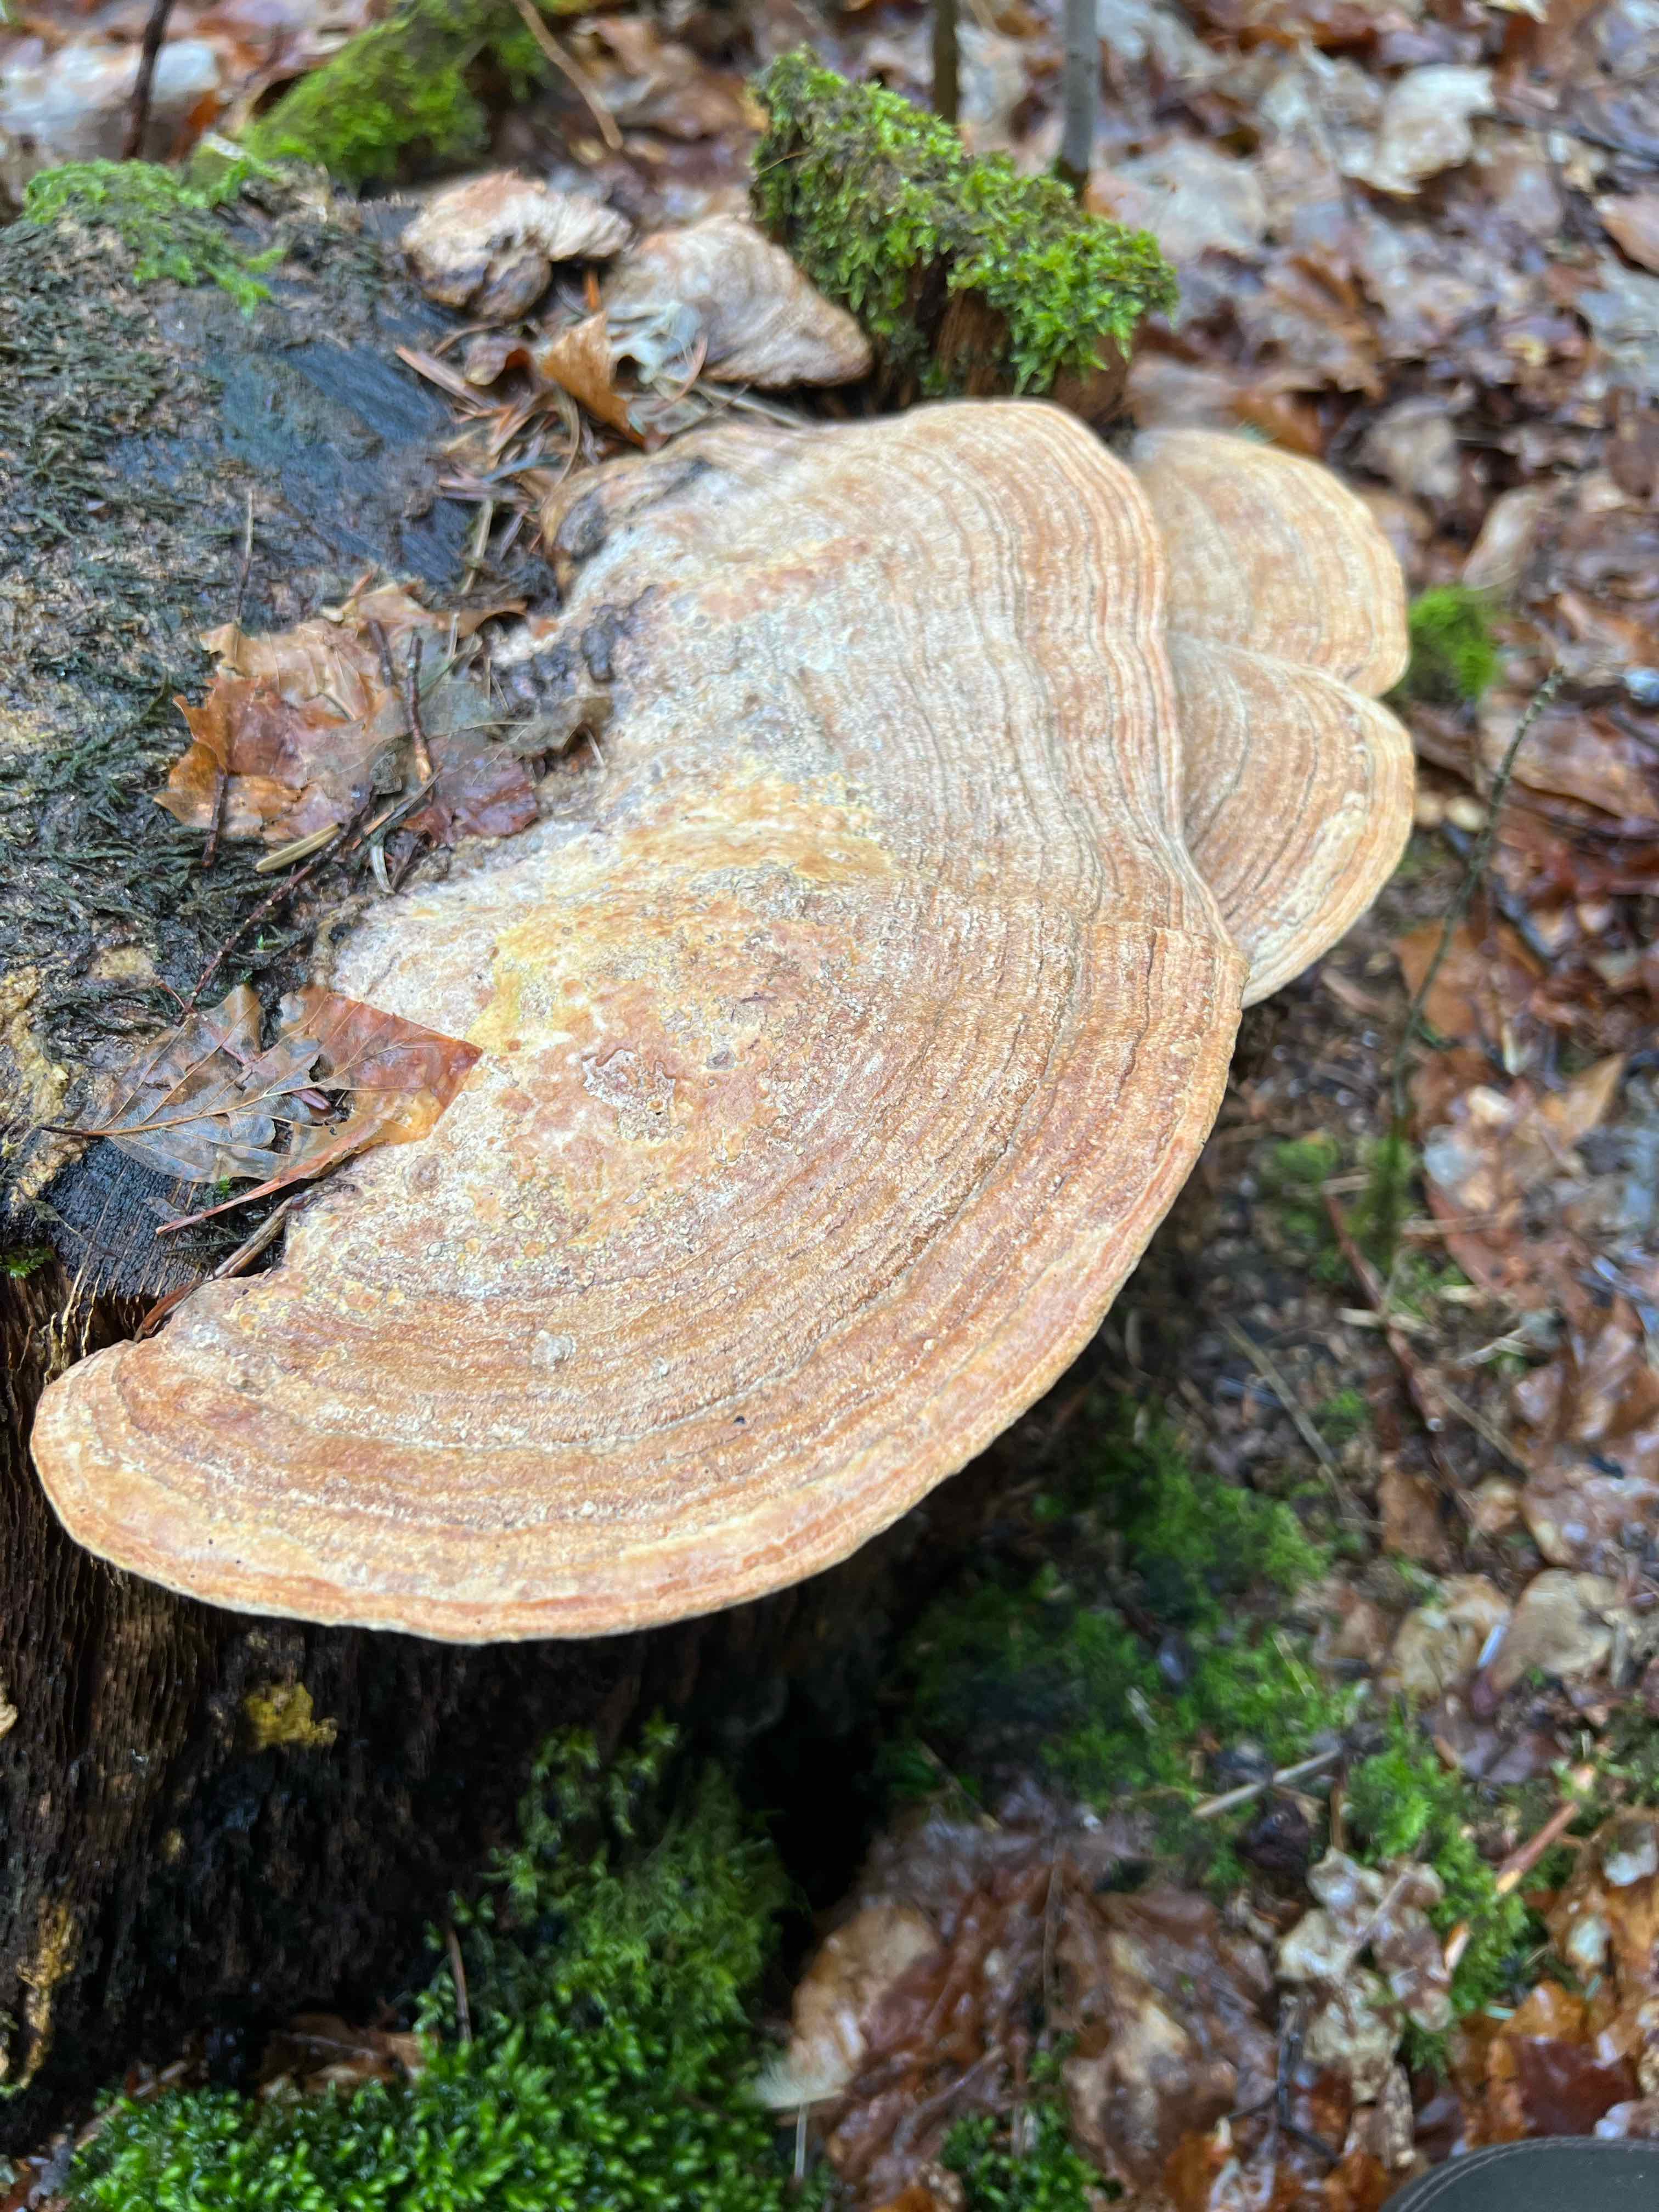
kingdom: Fungi
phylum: Basidiomycota
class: Agaricomycetes
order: Polyporales
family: Fomitopsidaceae
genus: Daedalea
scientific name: Daedalea quercina
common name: ege-labyrintsvamp
